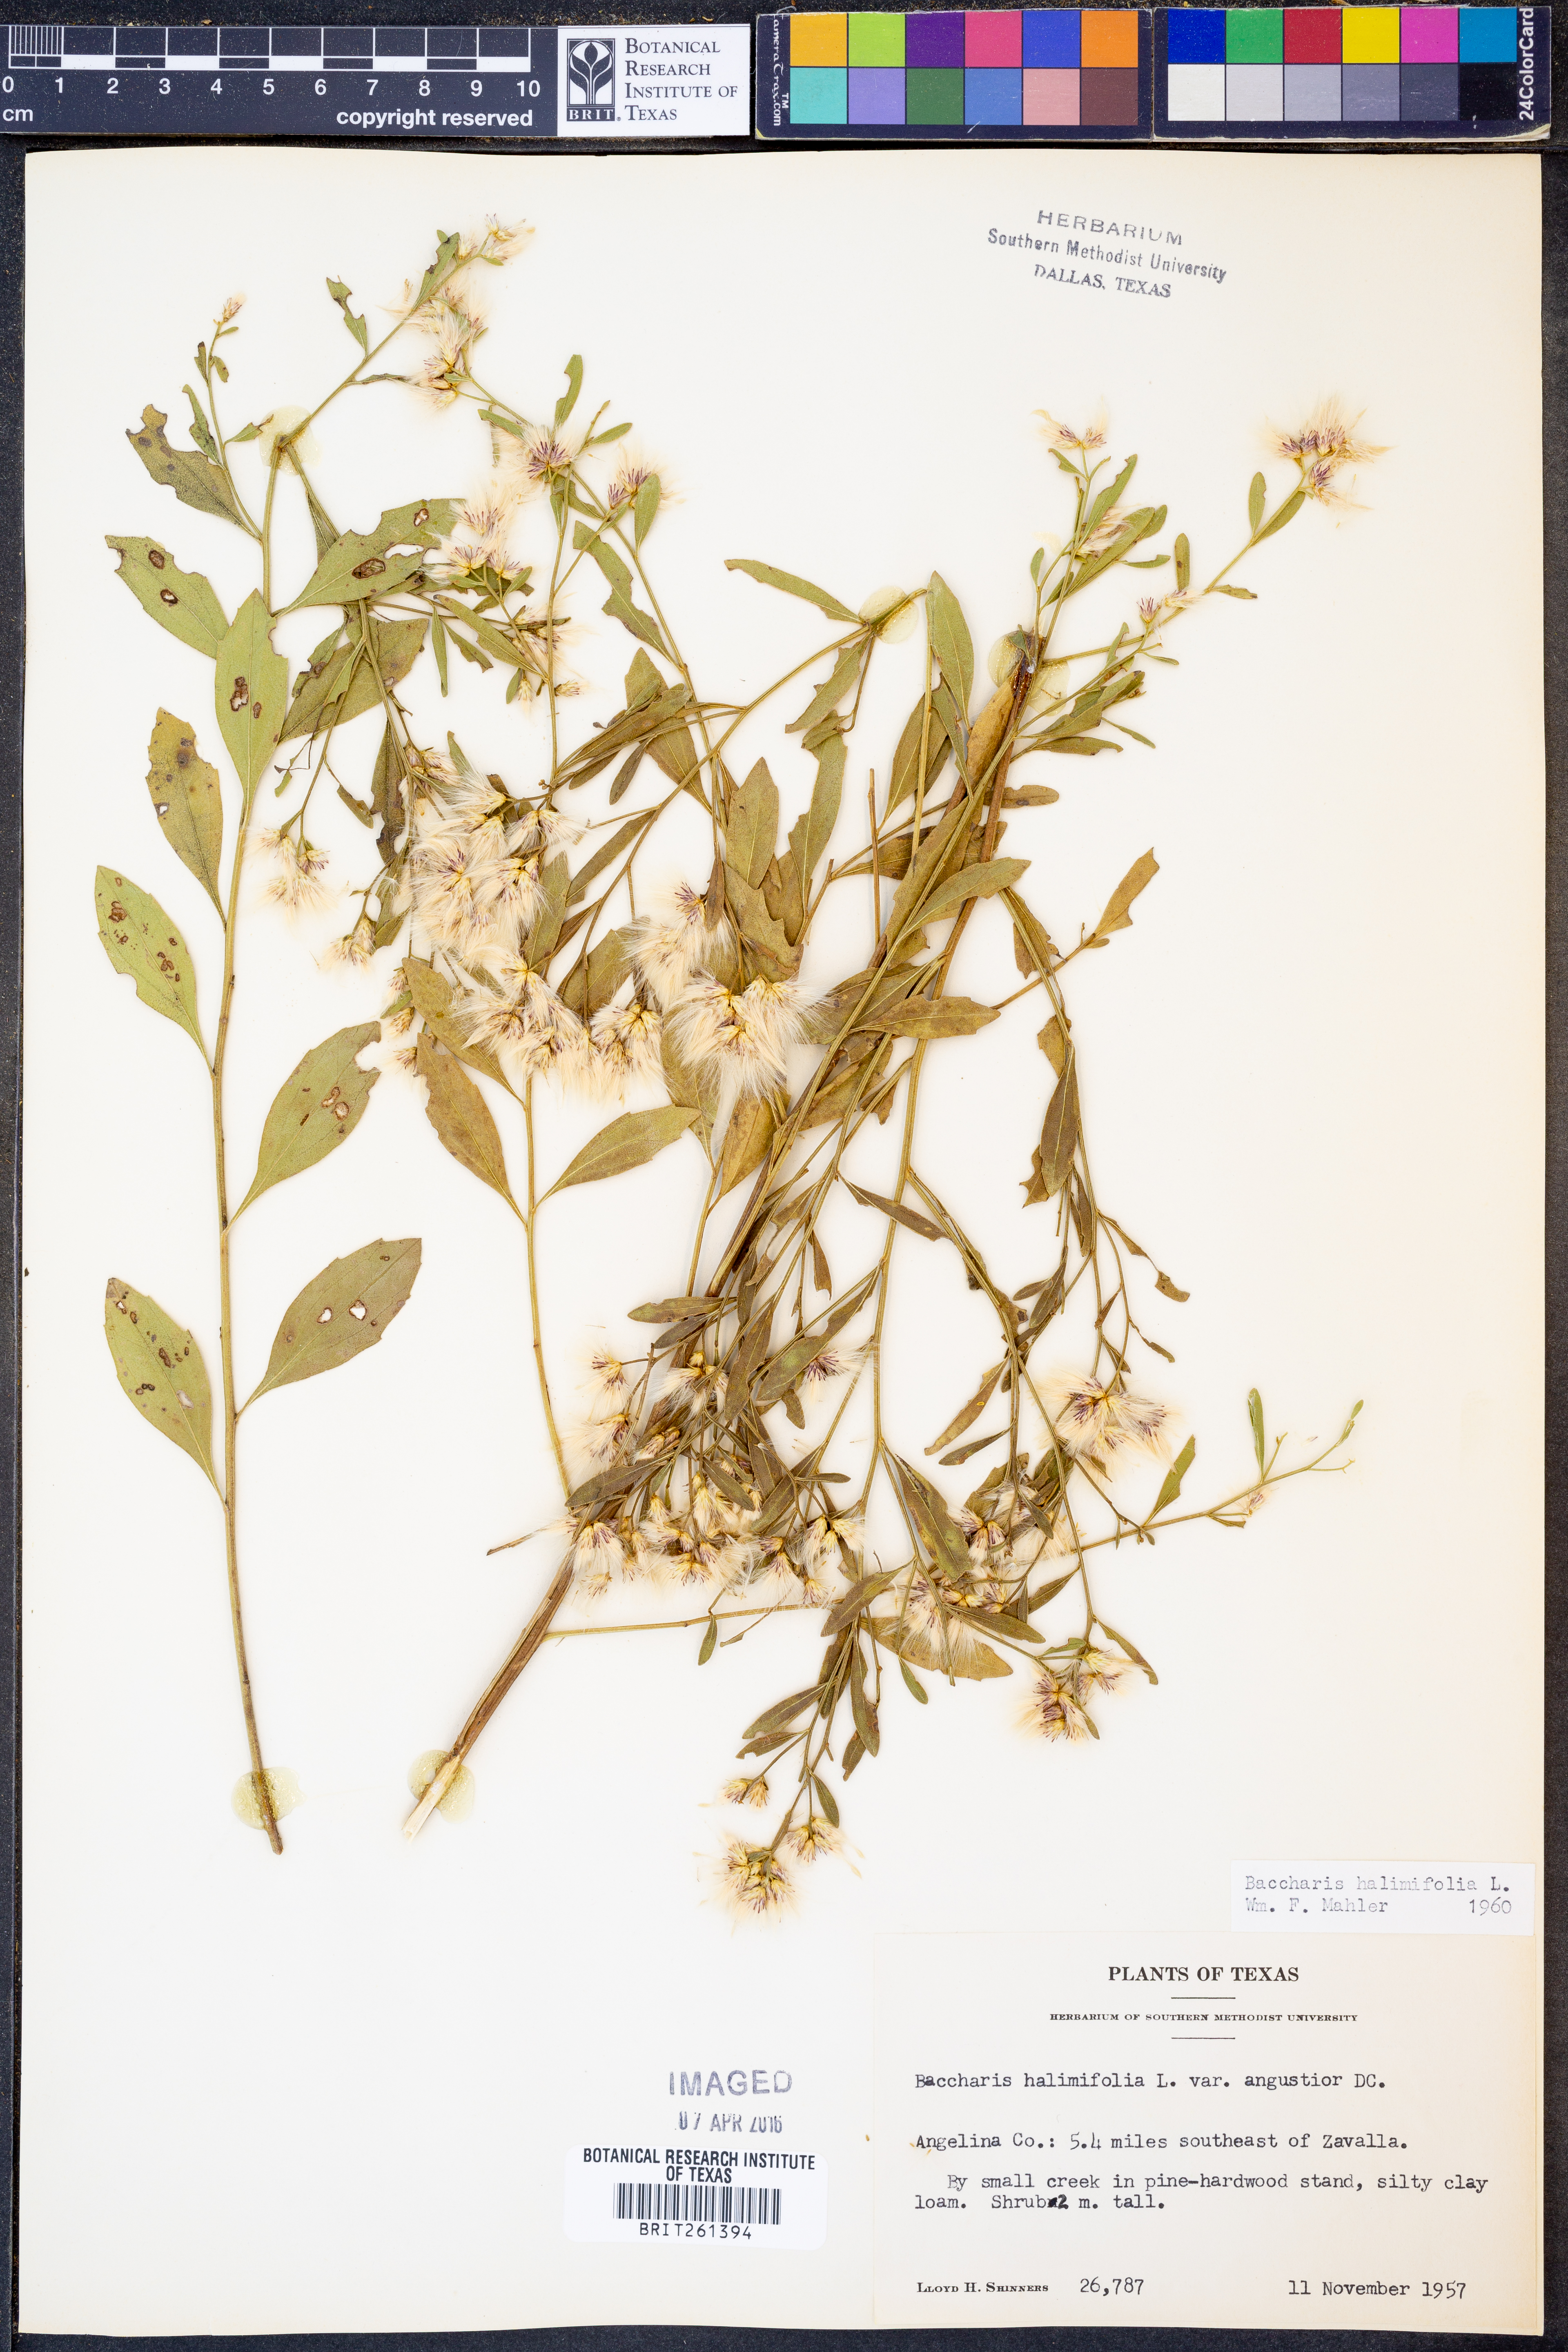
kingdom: Plantae
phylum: Tracheophyta
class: Magnoliopsida
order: Asterales
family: Asteraceae
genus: Nidorella
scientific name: Nidorella ivifolia
